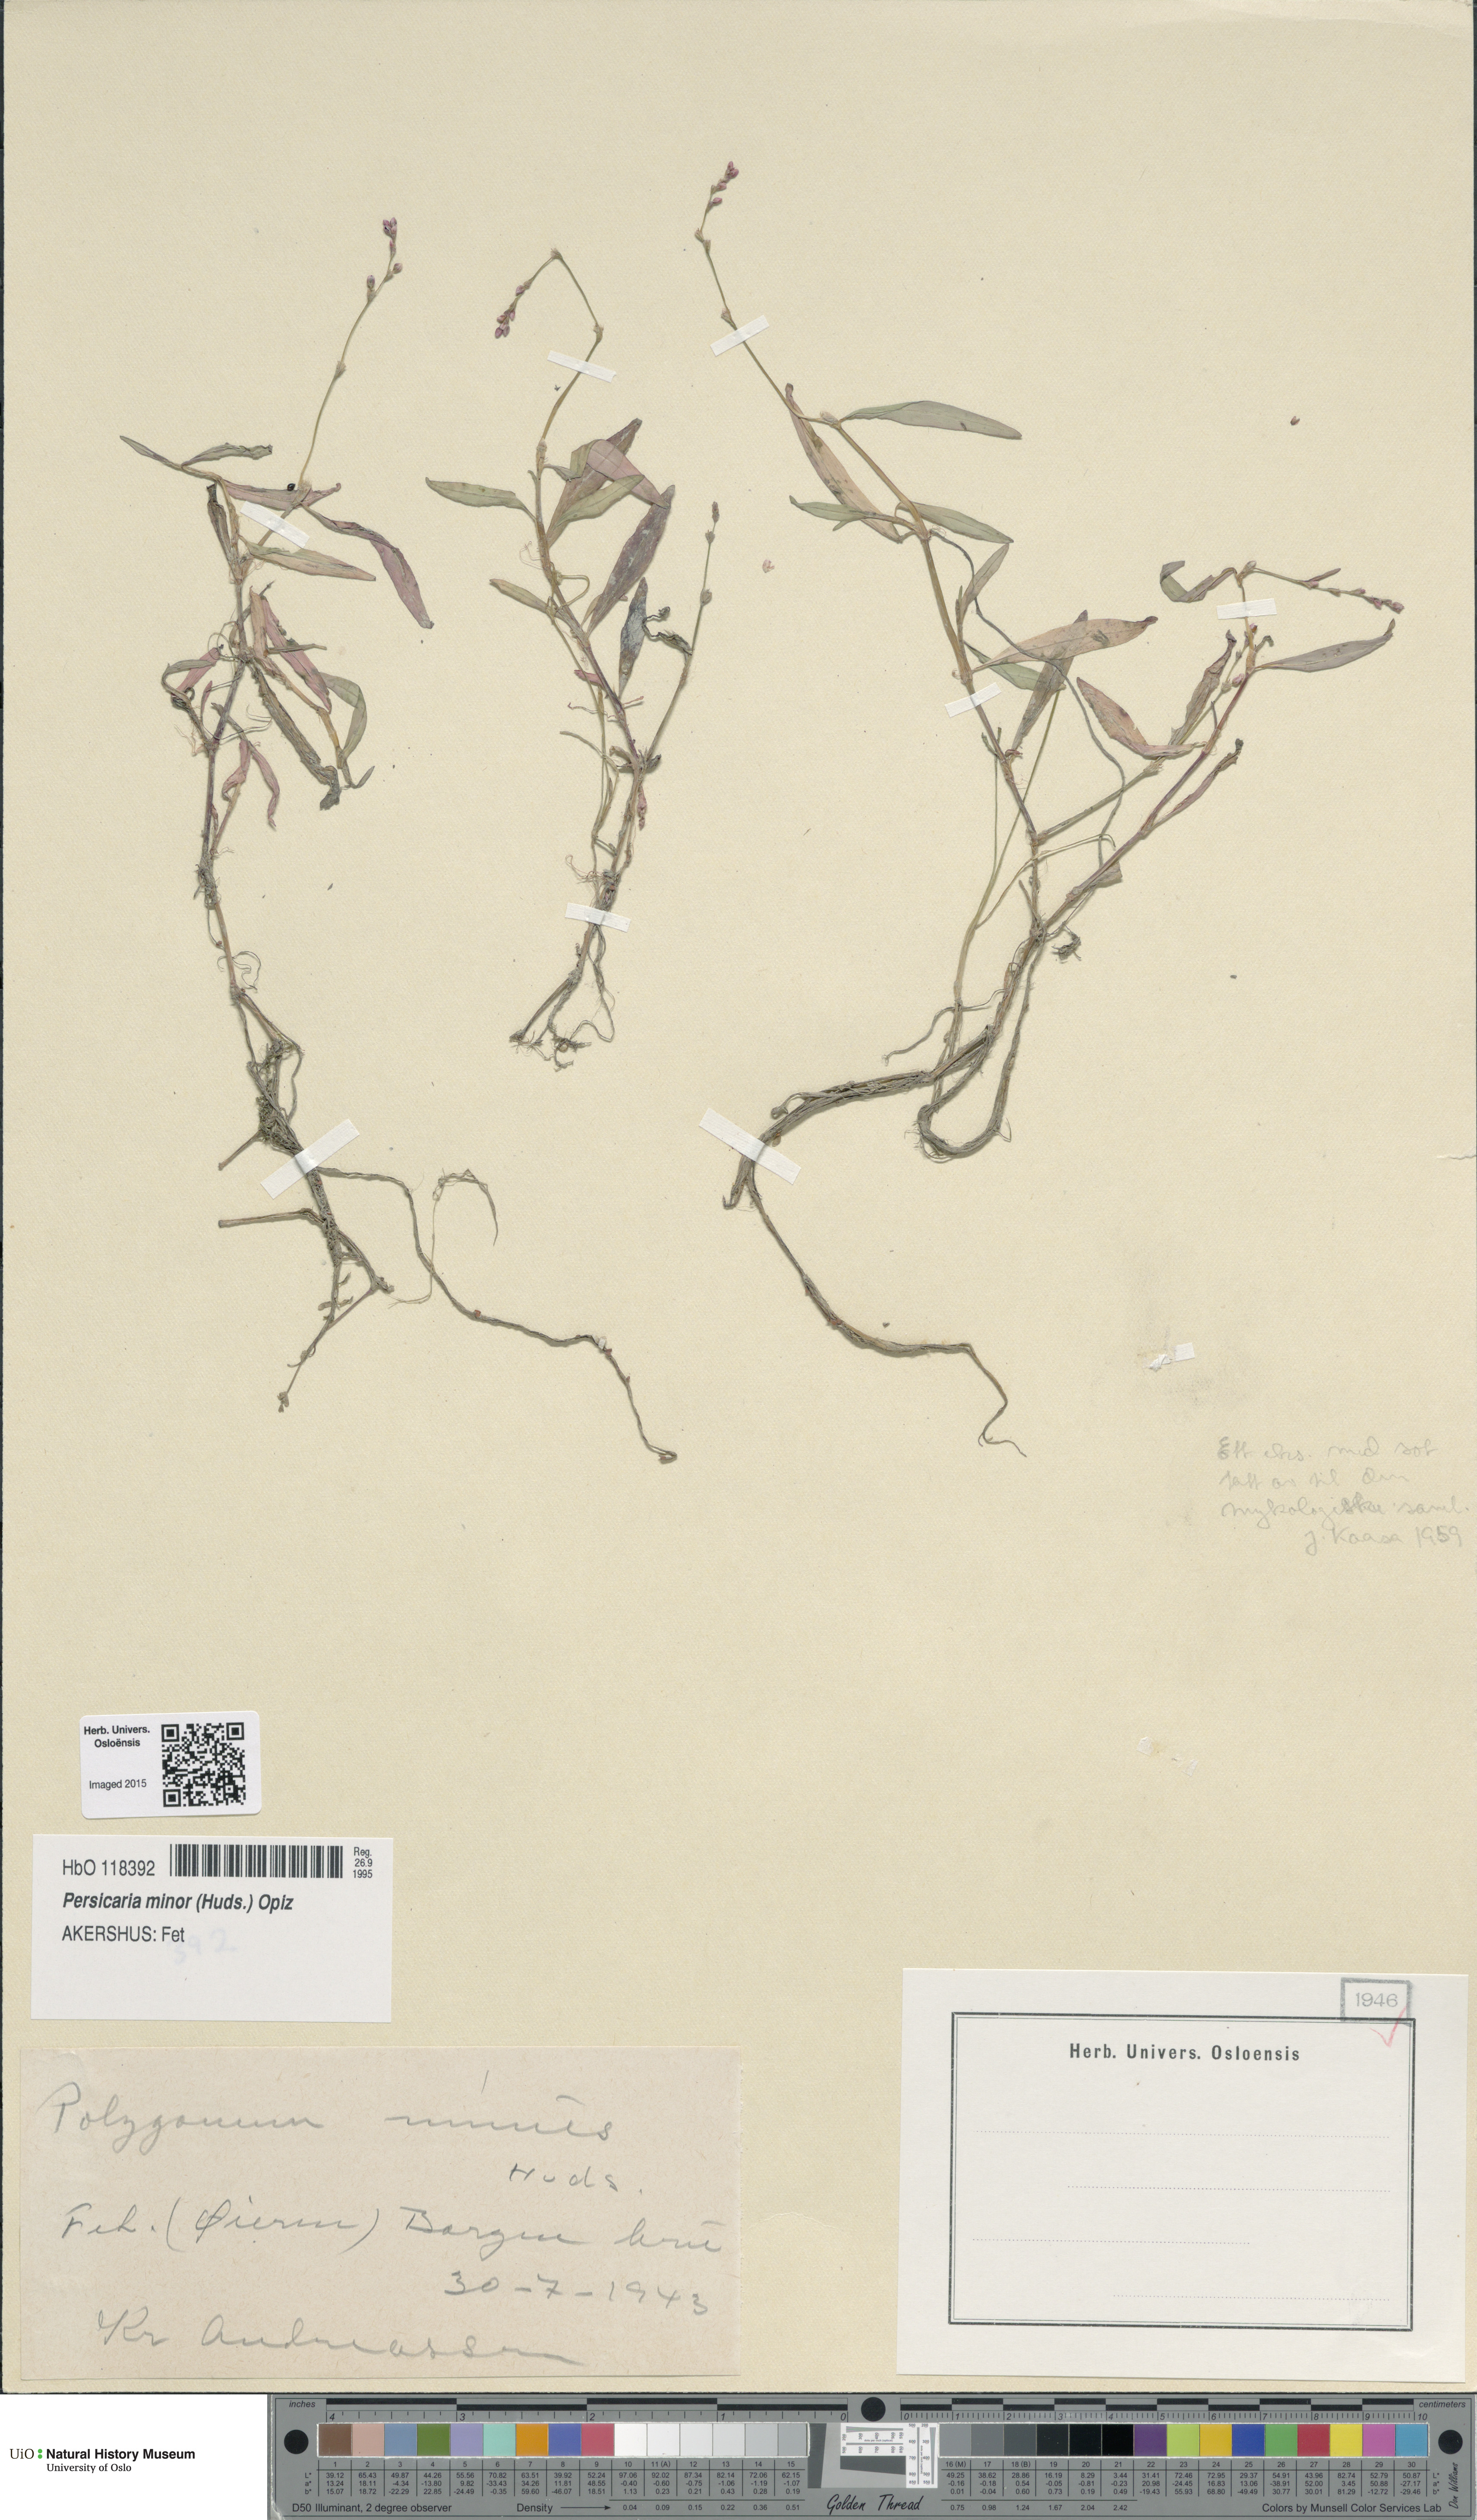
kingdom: Plantae
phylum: Tracheophyta
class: Magnoliopsida
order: Caryophyllales
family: Polygonaceae
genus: Persicaria
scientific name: Persicaria minor
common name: Small water-pepper
